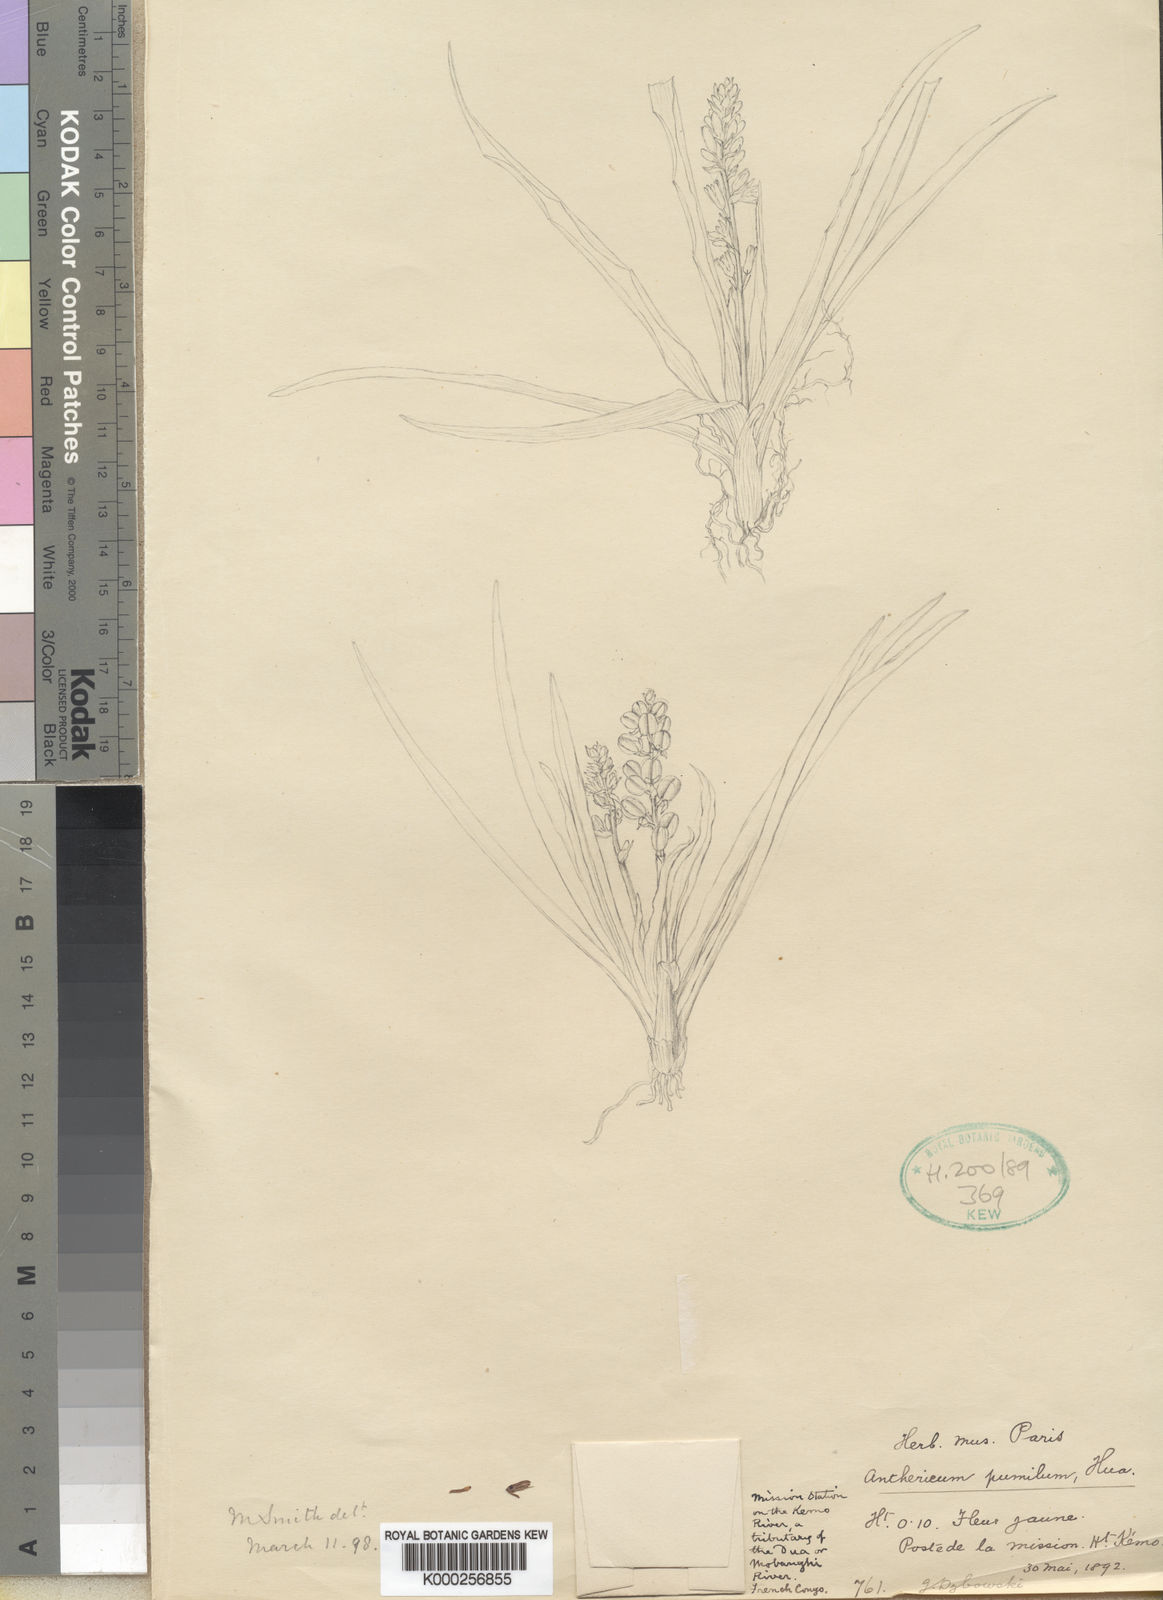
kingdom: Plantae
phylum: Tracheophyta
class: Liliopsida
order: Asparagales
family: Asparagaceae
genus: Anthericum
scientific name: Anthericum pumilum
